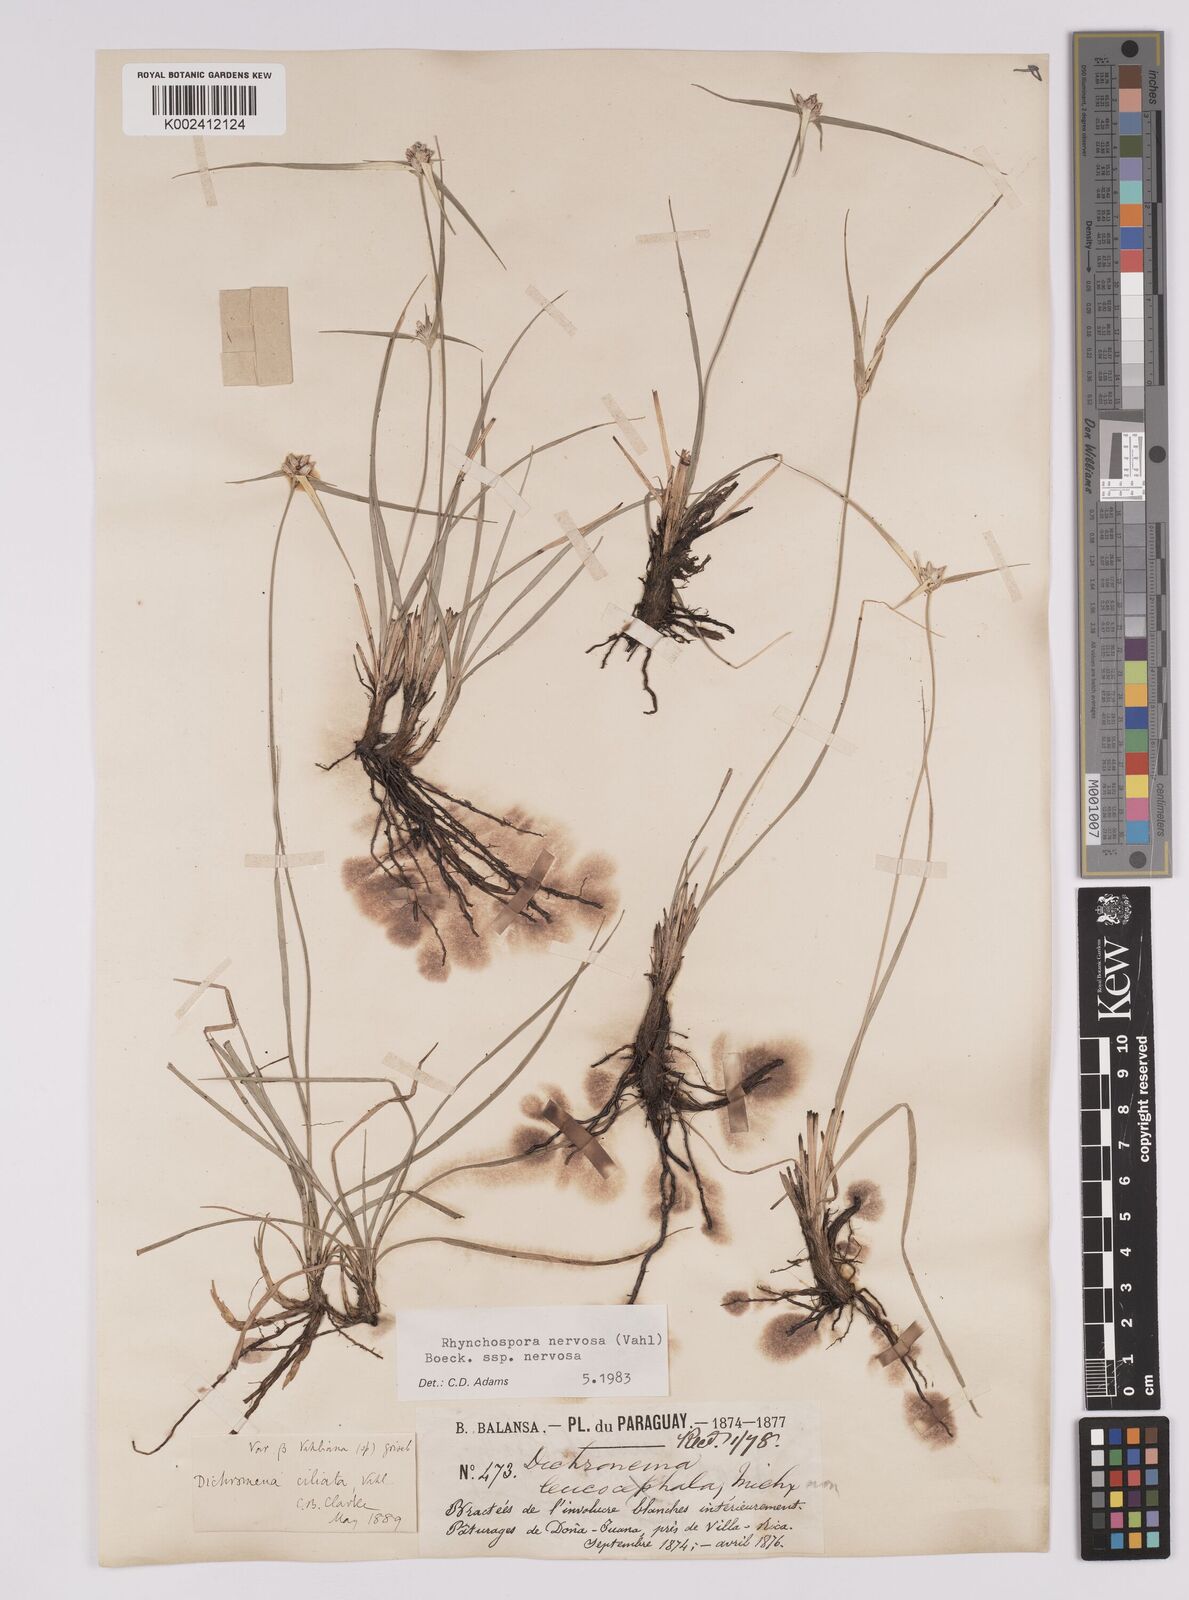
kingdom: Plantae
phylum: Tracheophyta
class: Liliopsida
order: Poales
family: Cyperaceae
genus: Rhynchospora
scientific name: Rhynchospora nervosa
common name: Star sedge
